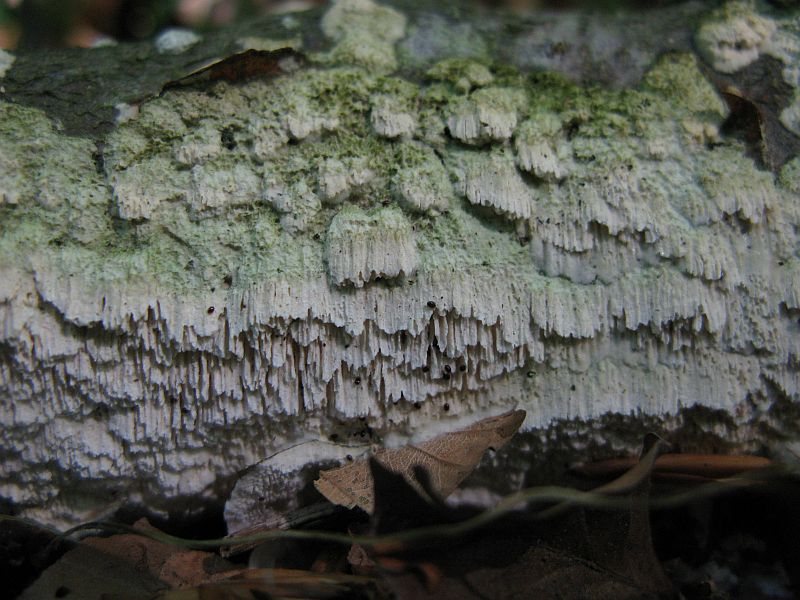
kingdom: Fungi
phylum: Basidiomycota
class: Agaricomycetes
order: Hymenochaetales
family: Schizoporaceae
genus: Schizopora
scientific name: Schizopora paradoxa
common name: hvid tandsvamp
